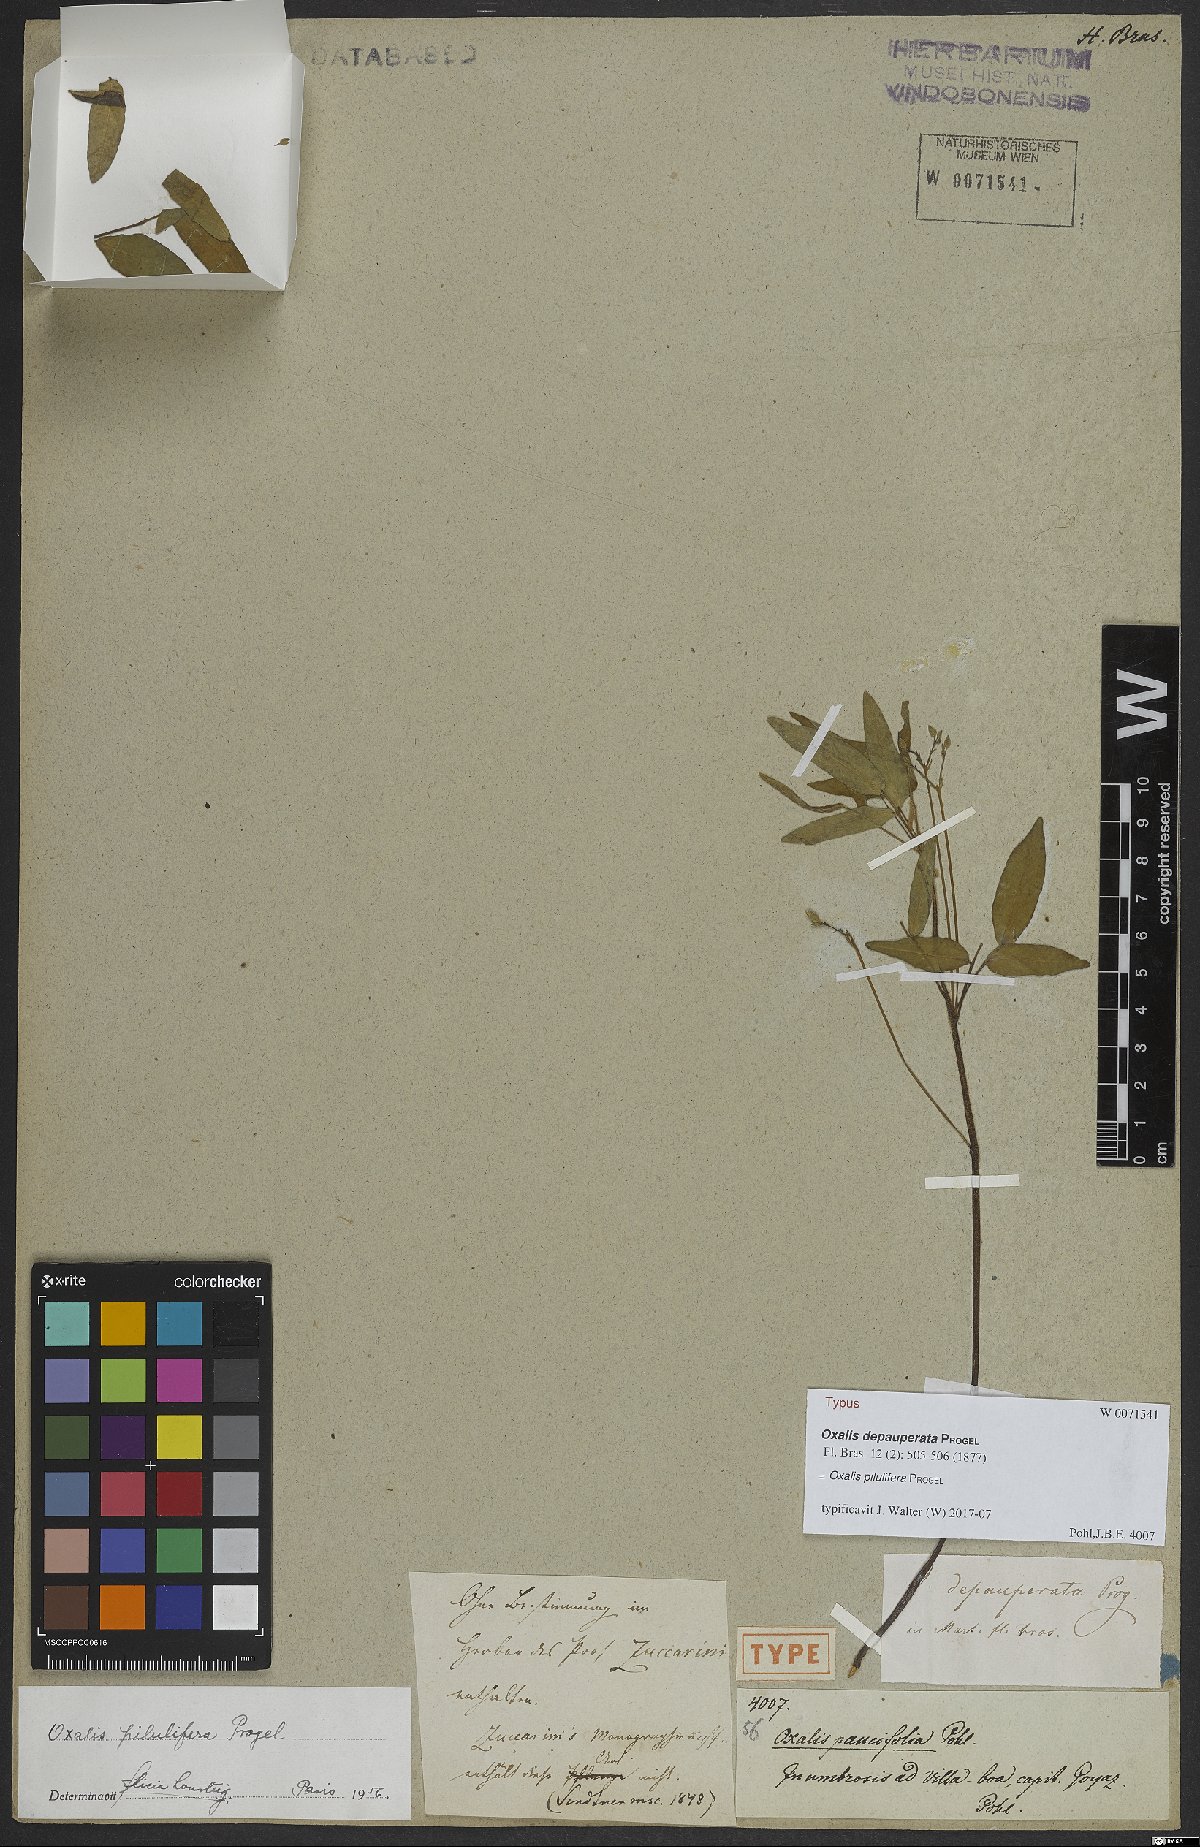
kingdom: Plantae
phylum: Tracheophyta
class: Magnoliopsida
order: Oxalidales
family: Oxalidaceae
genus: Oxalis
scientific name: Oxalis pilulifera
